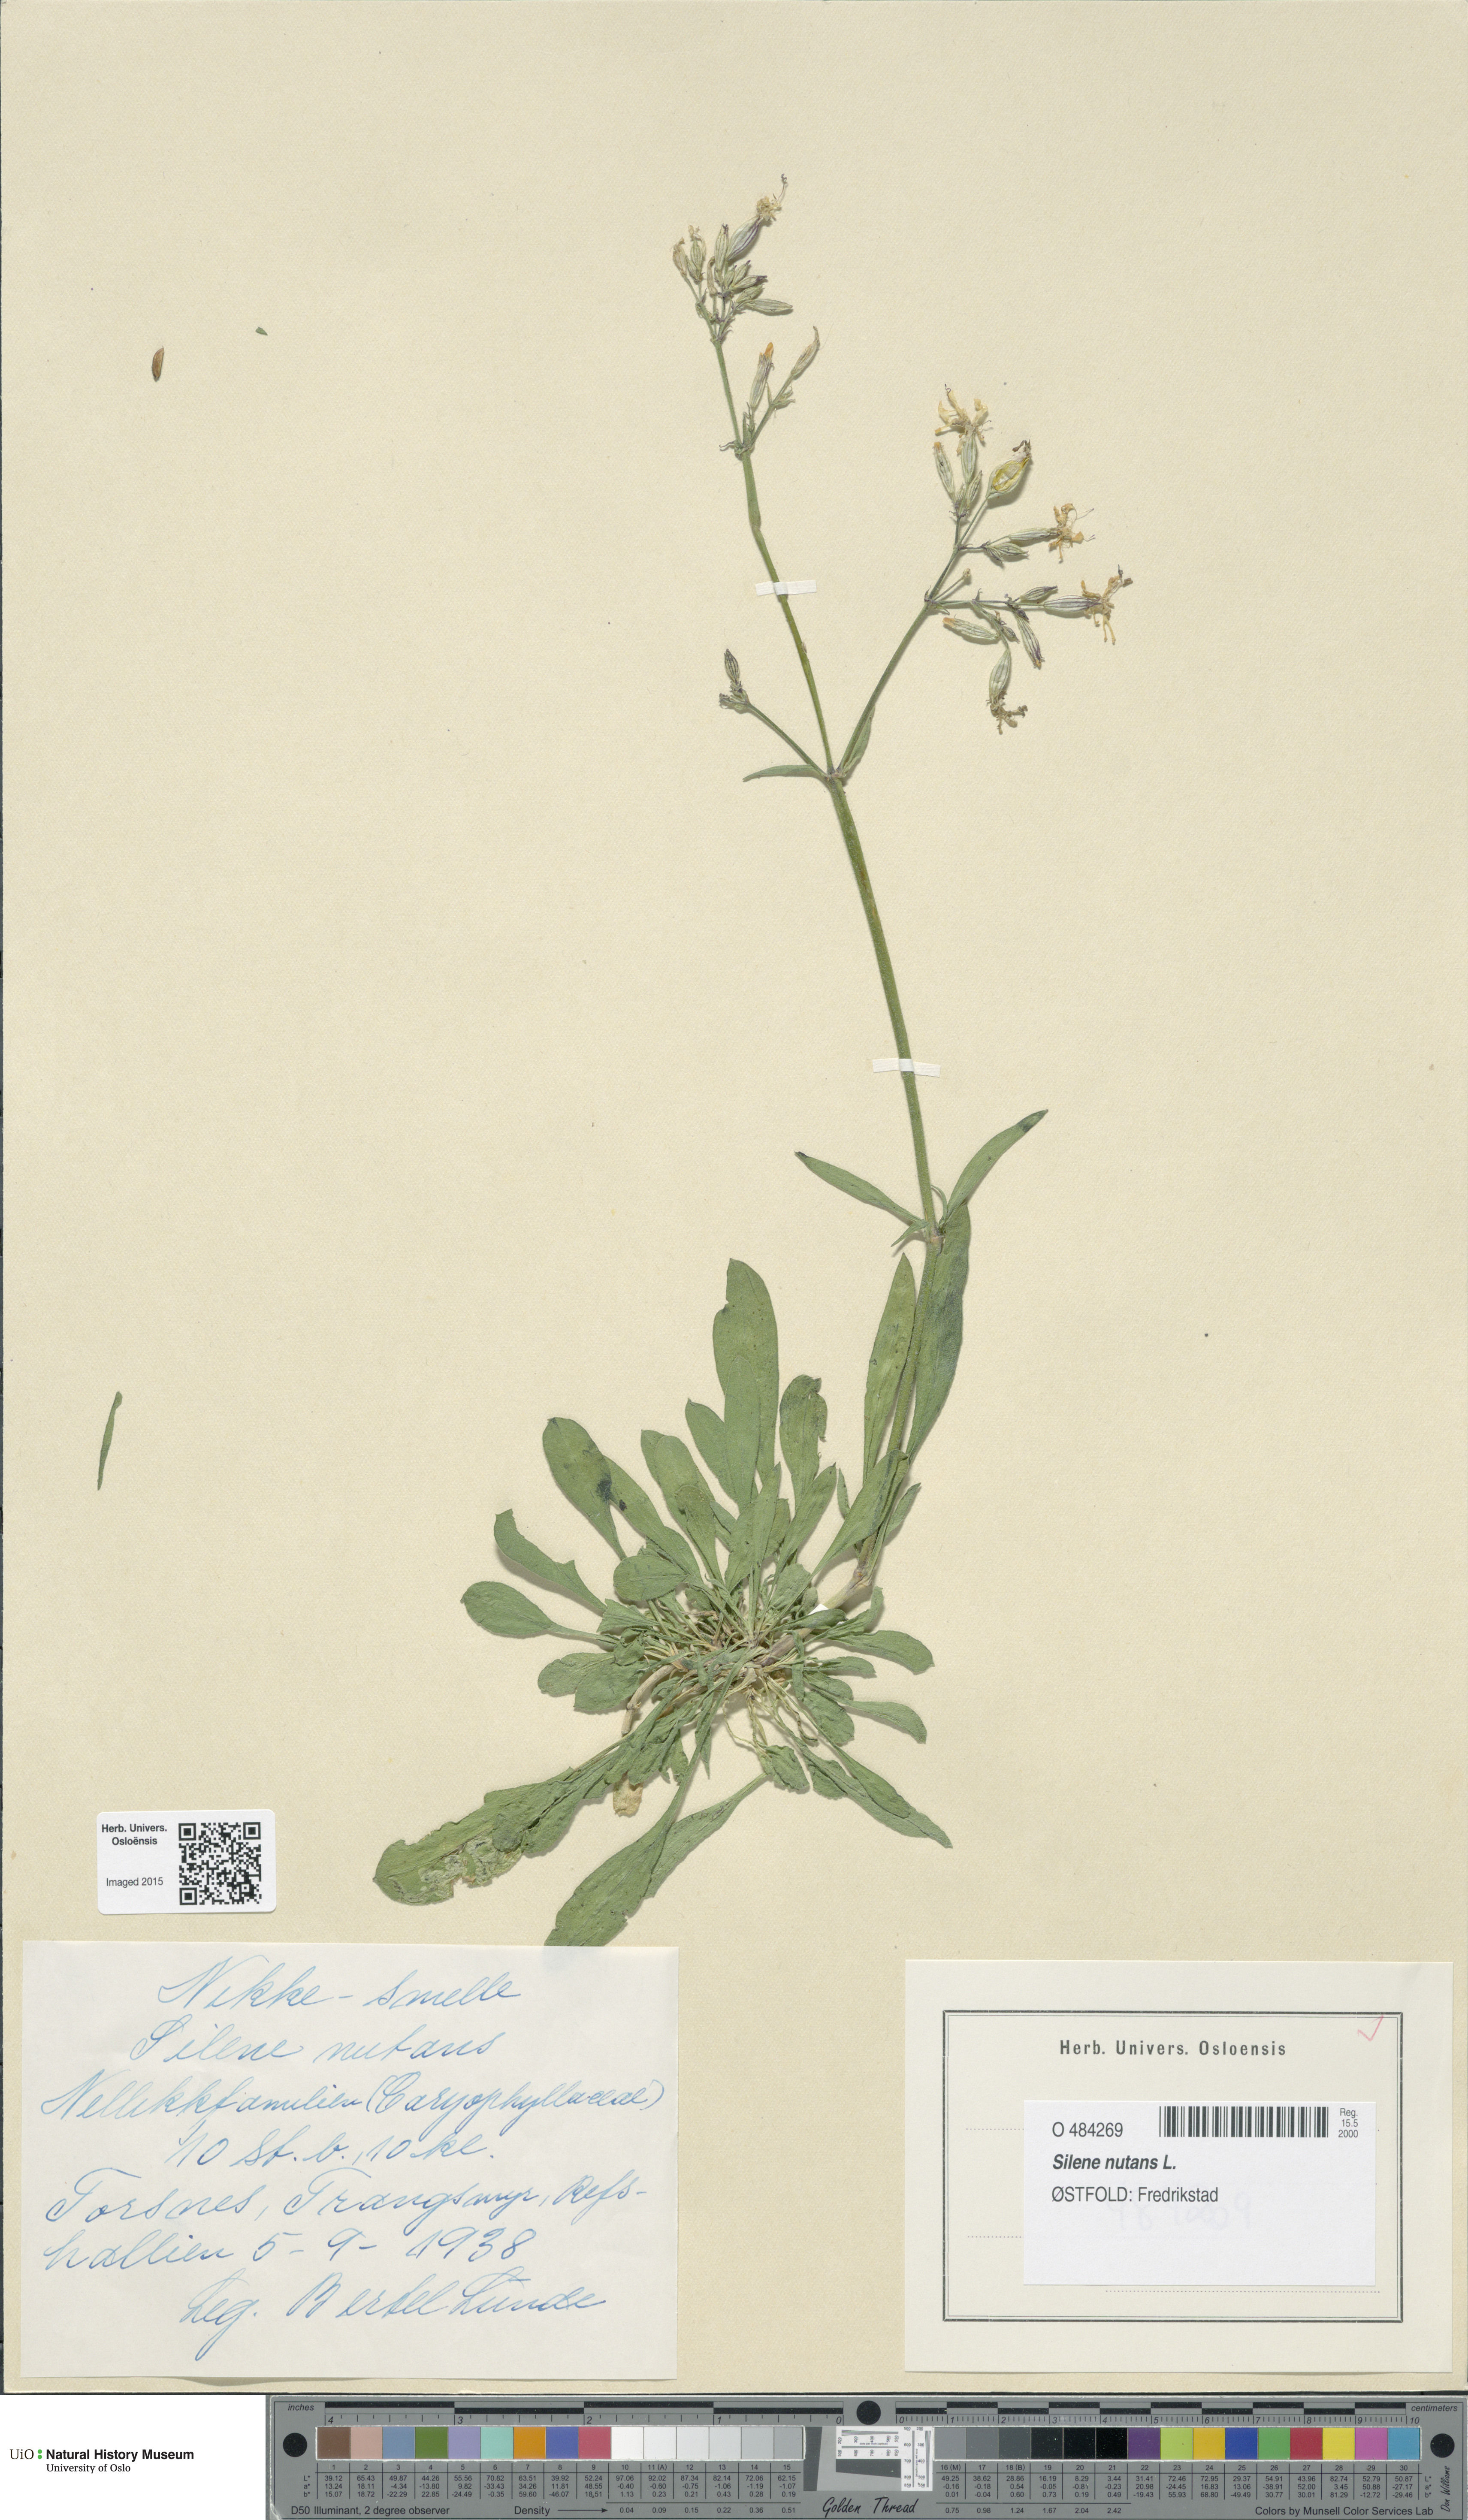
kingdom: Plantae
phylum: Tracheophyta
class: Magnoliopsida
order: Caryophyllales
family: Caryophyllaceae
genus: Silene
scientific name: Silene nutans
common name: Nottingham catchfly
